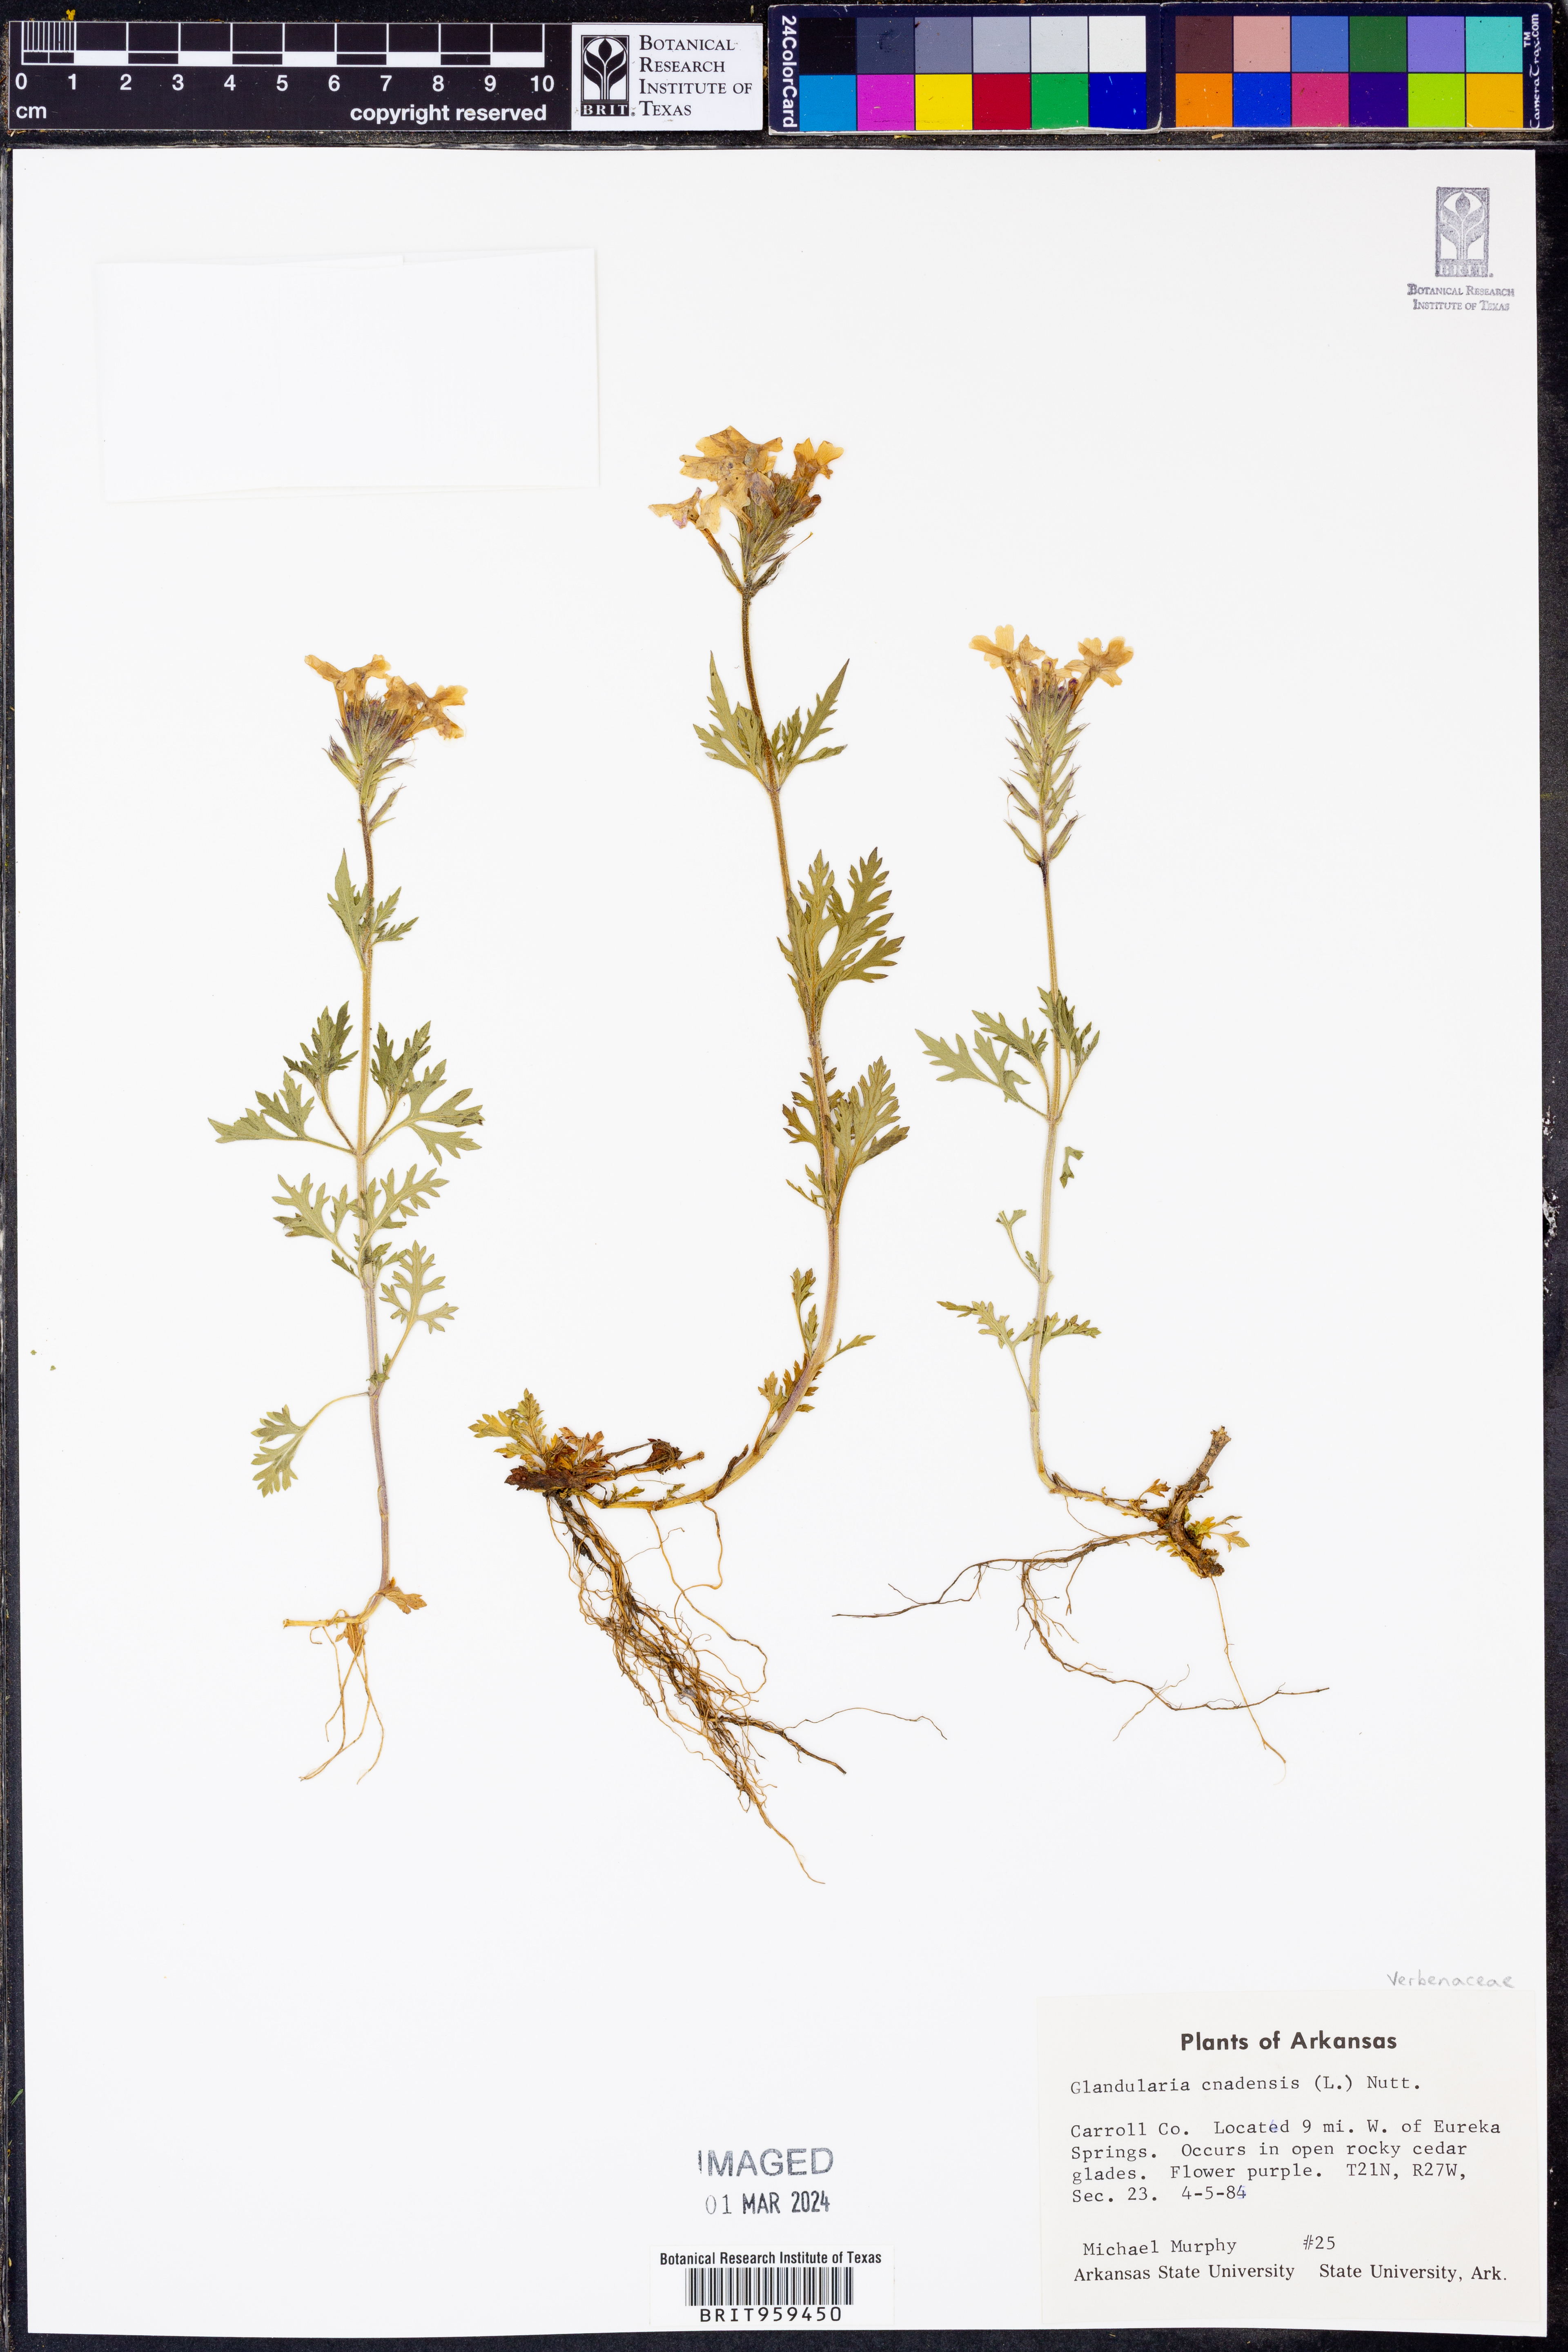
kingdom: Plantae
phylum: Tracheophyta
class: Magnoliopsida
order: Lamiales
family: Verbenaceae
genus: Verbena
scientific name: Verbena canadensis
